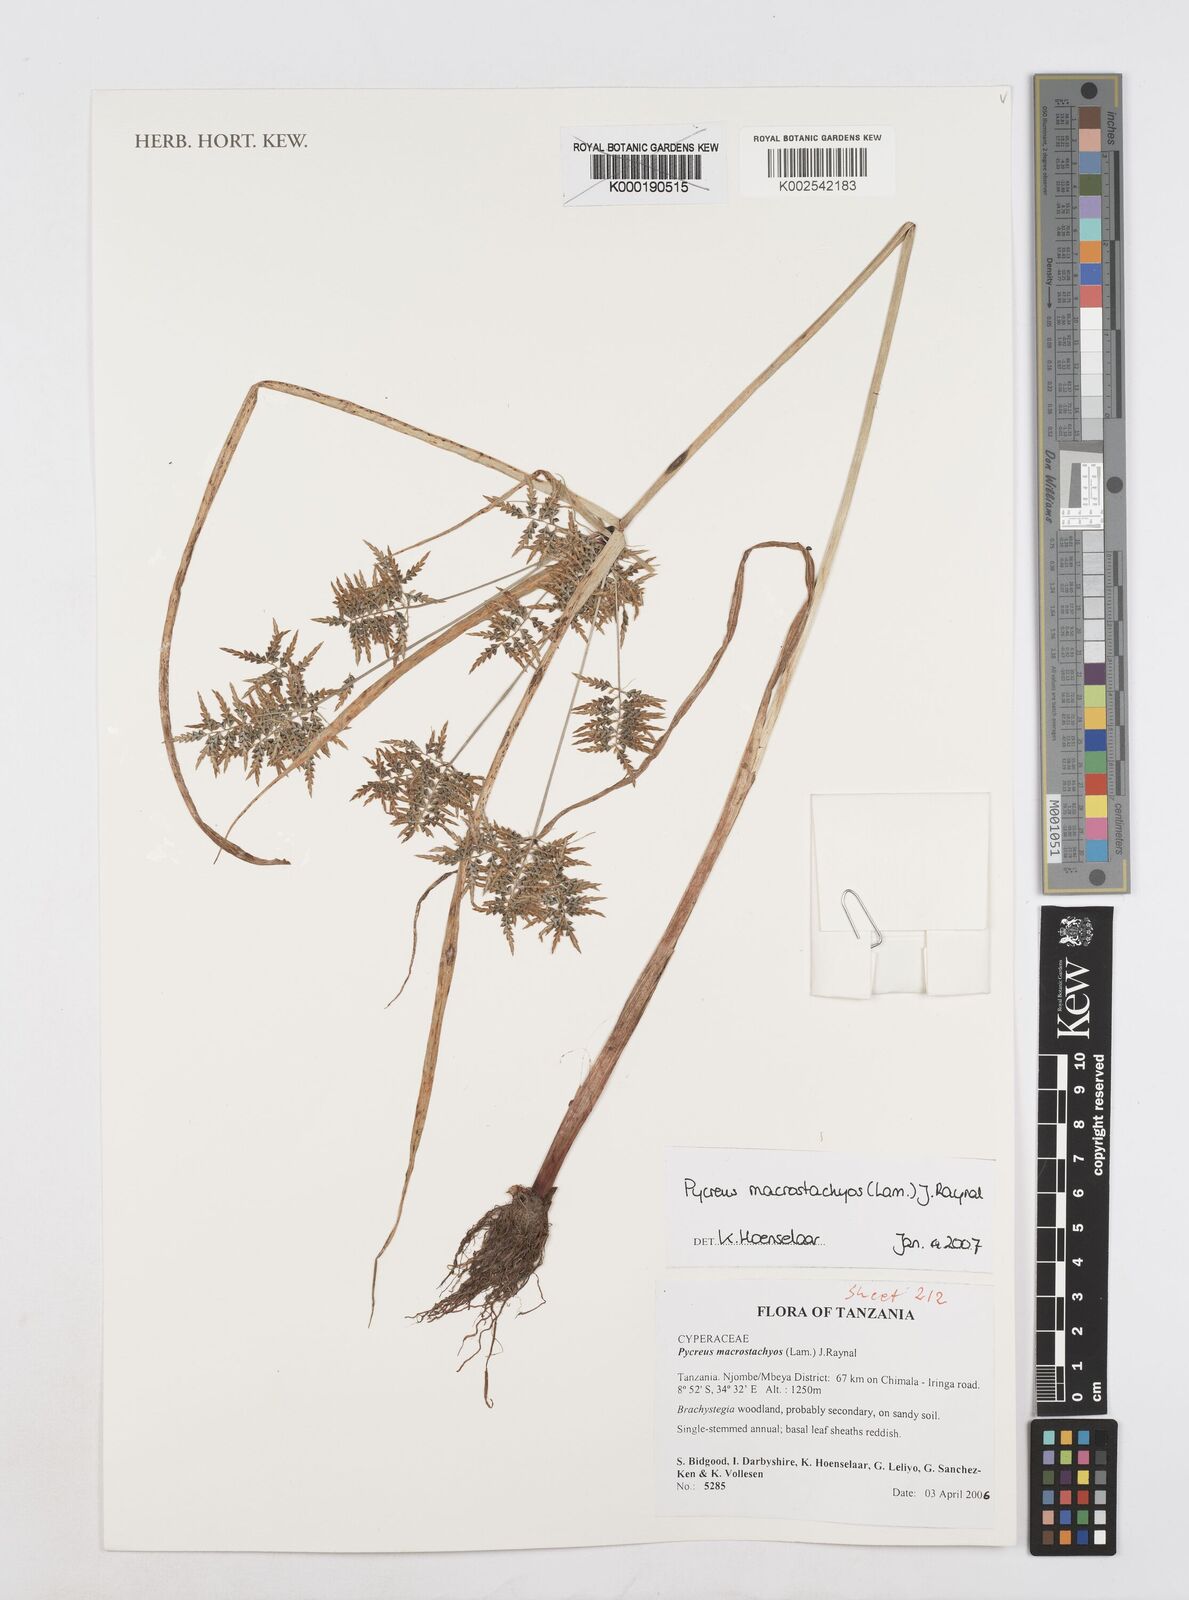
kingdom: Plantae
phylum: Tracheophyta
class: Liliopsida
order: Poales
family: Cyperaceae
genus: Cyperus
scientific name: Cyperus macrostachyos
